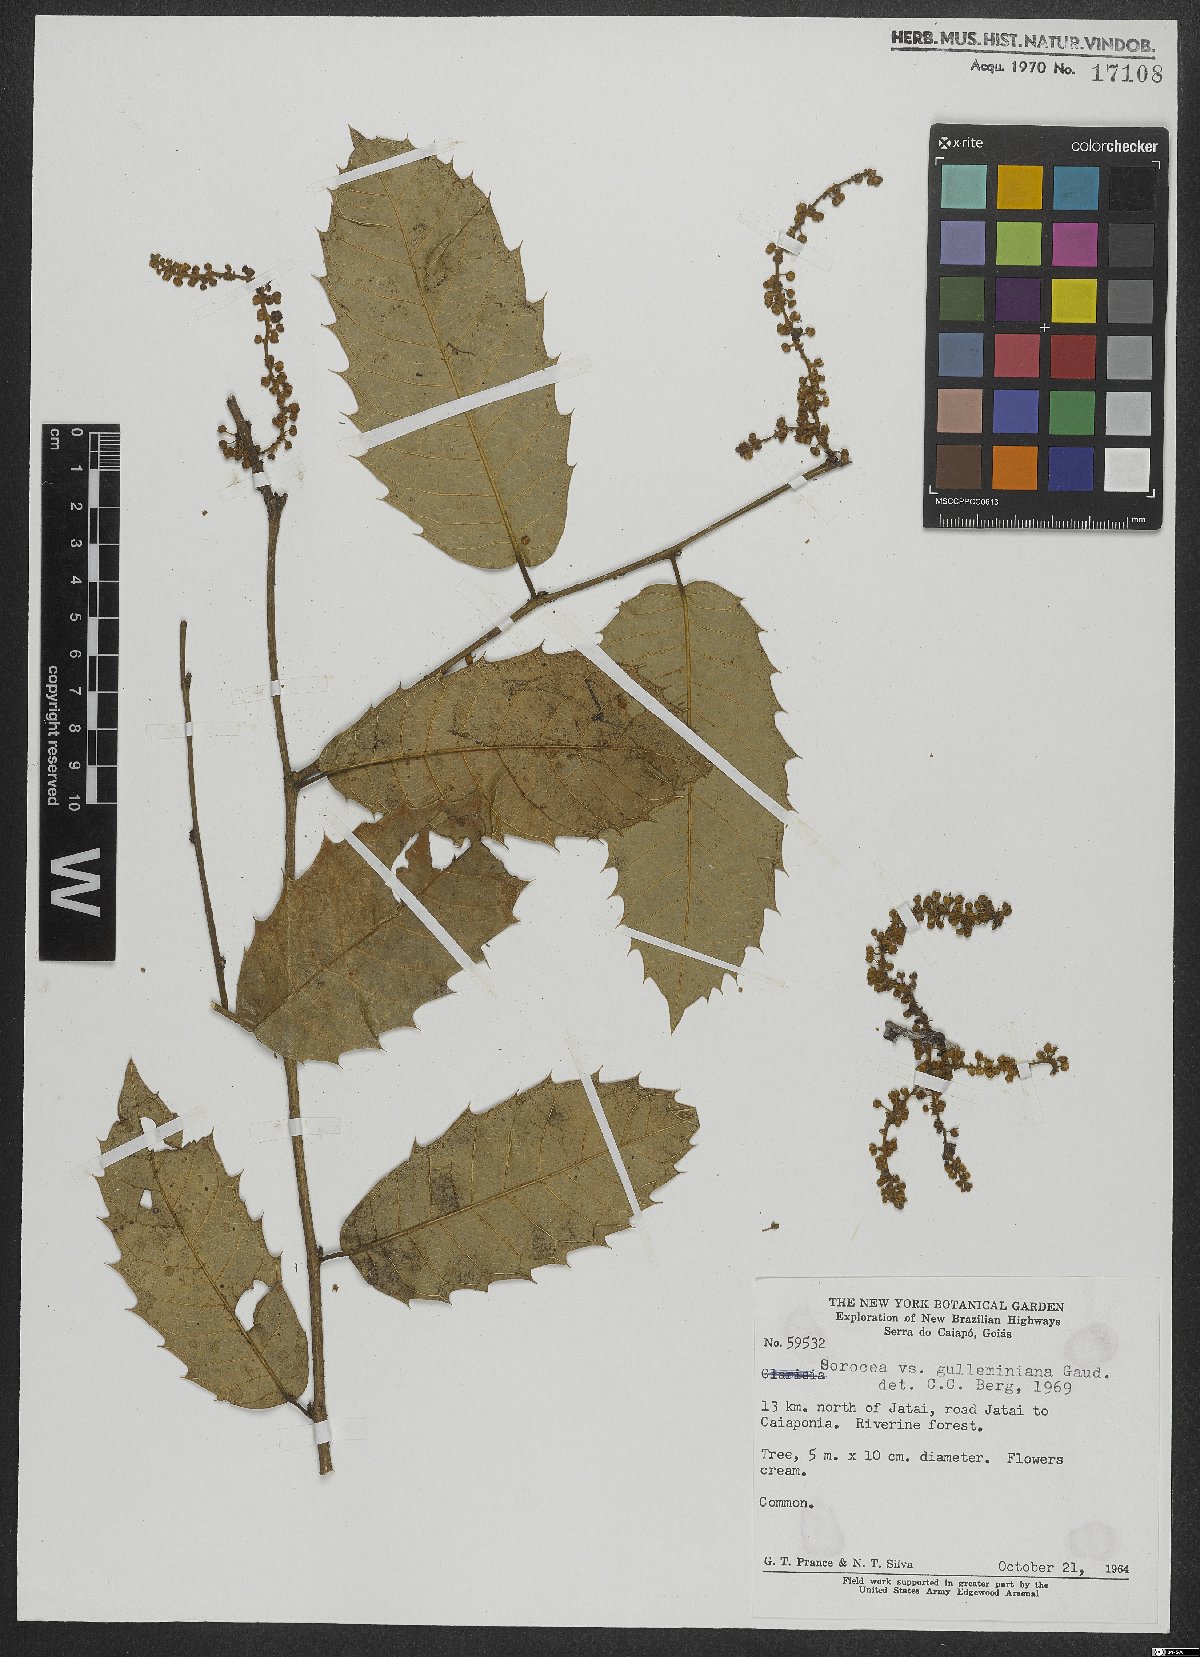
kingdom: Plantae
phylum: Tracheophyta
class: Magnoliopsida
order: Rosales
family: Moraceae
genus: Sorocea
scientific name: Sorocea guilleminiana
